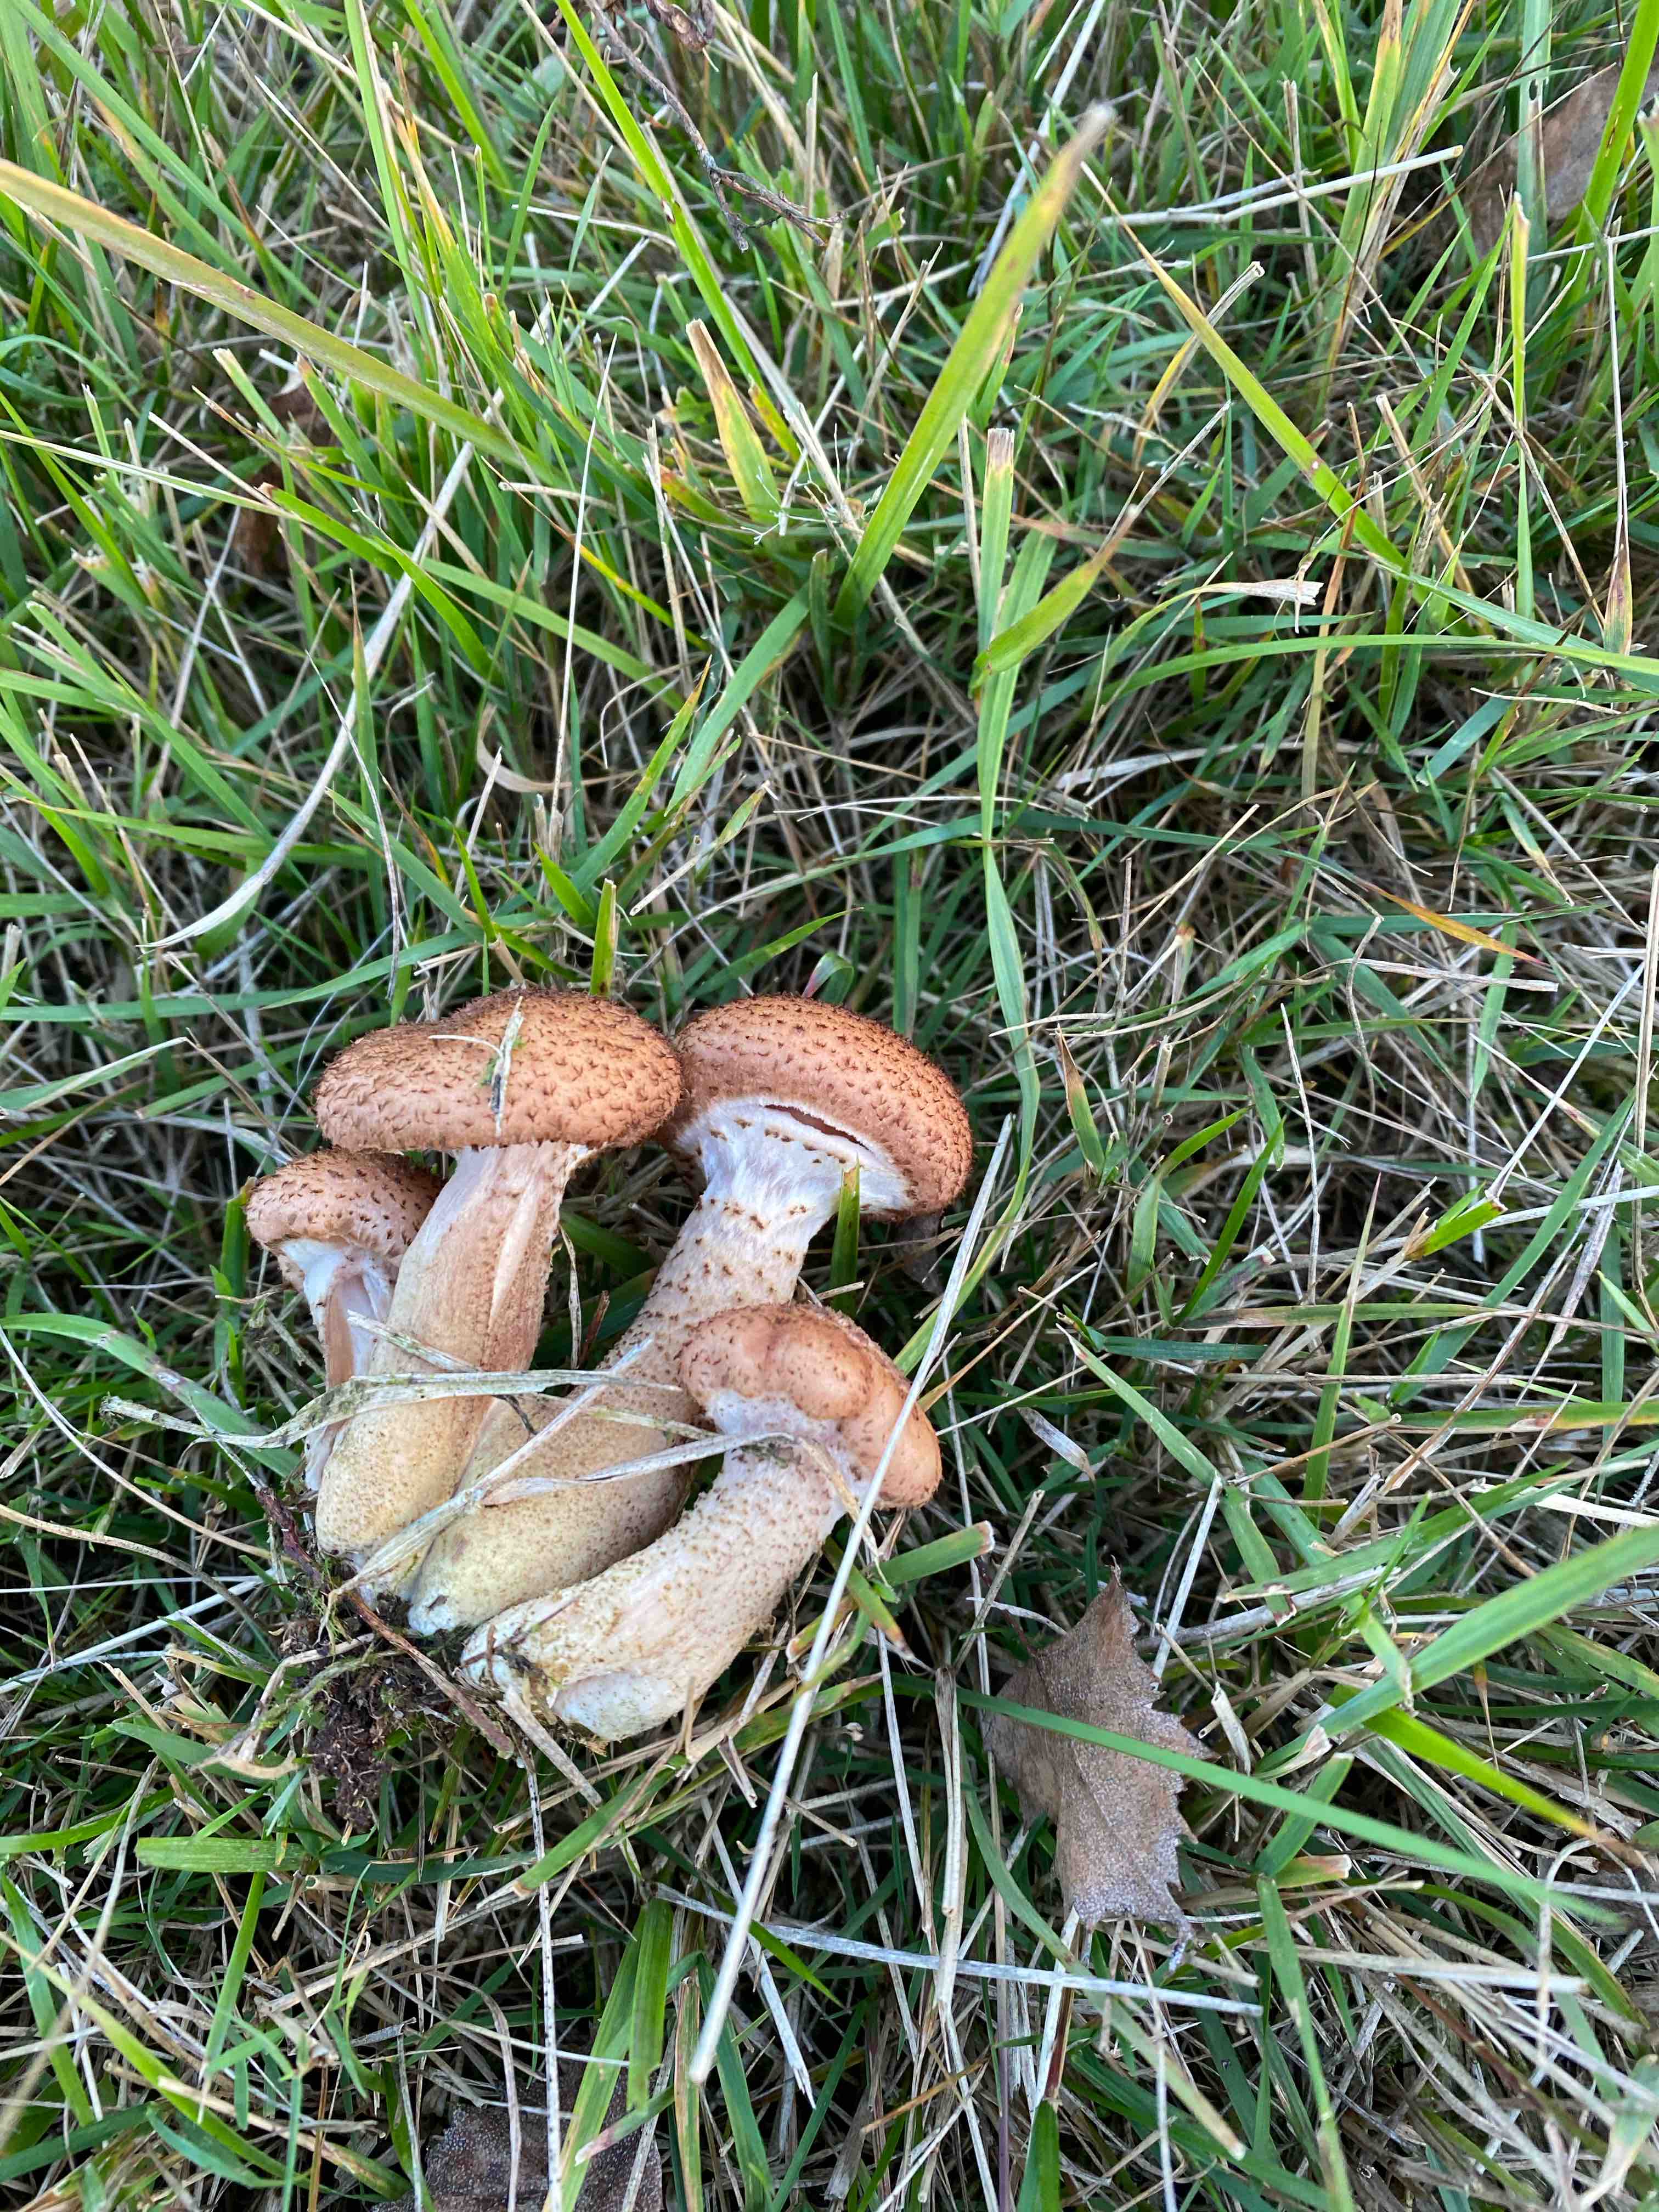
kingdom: Fungi
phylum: Basidiomycota
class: Agaricomycetes
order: Agaricales
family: Physalacriaceae
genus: Armillaria
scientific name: Armillaria ostoyae
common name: mørk honningsvamp
